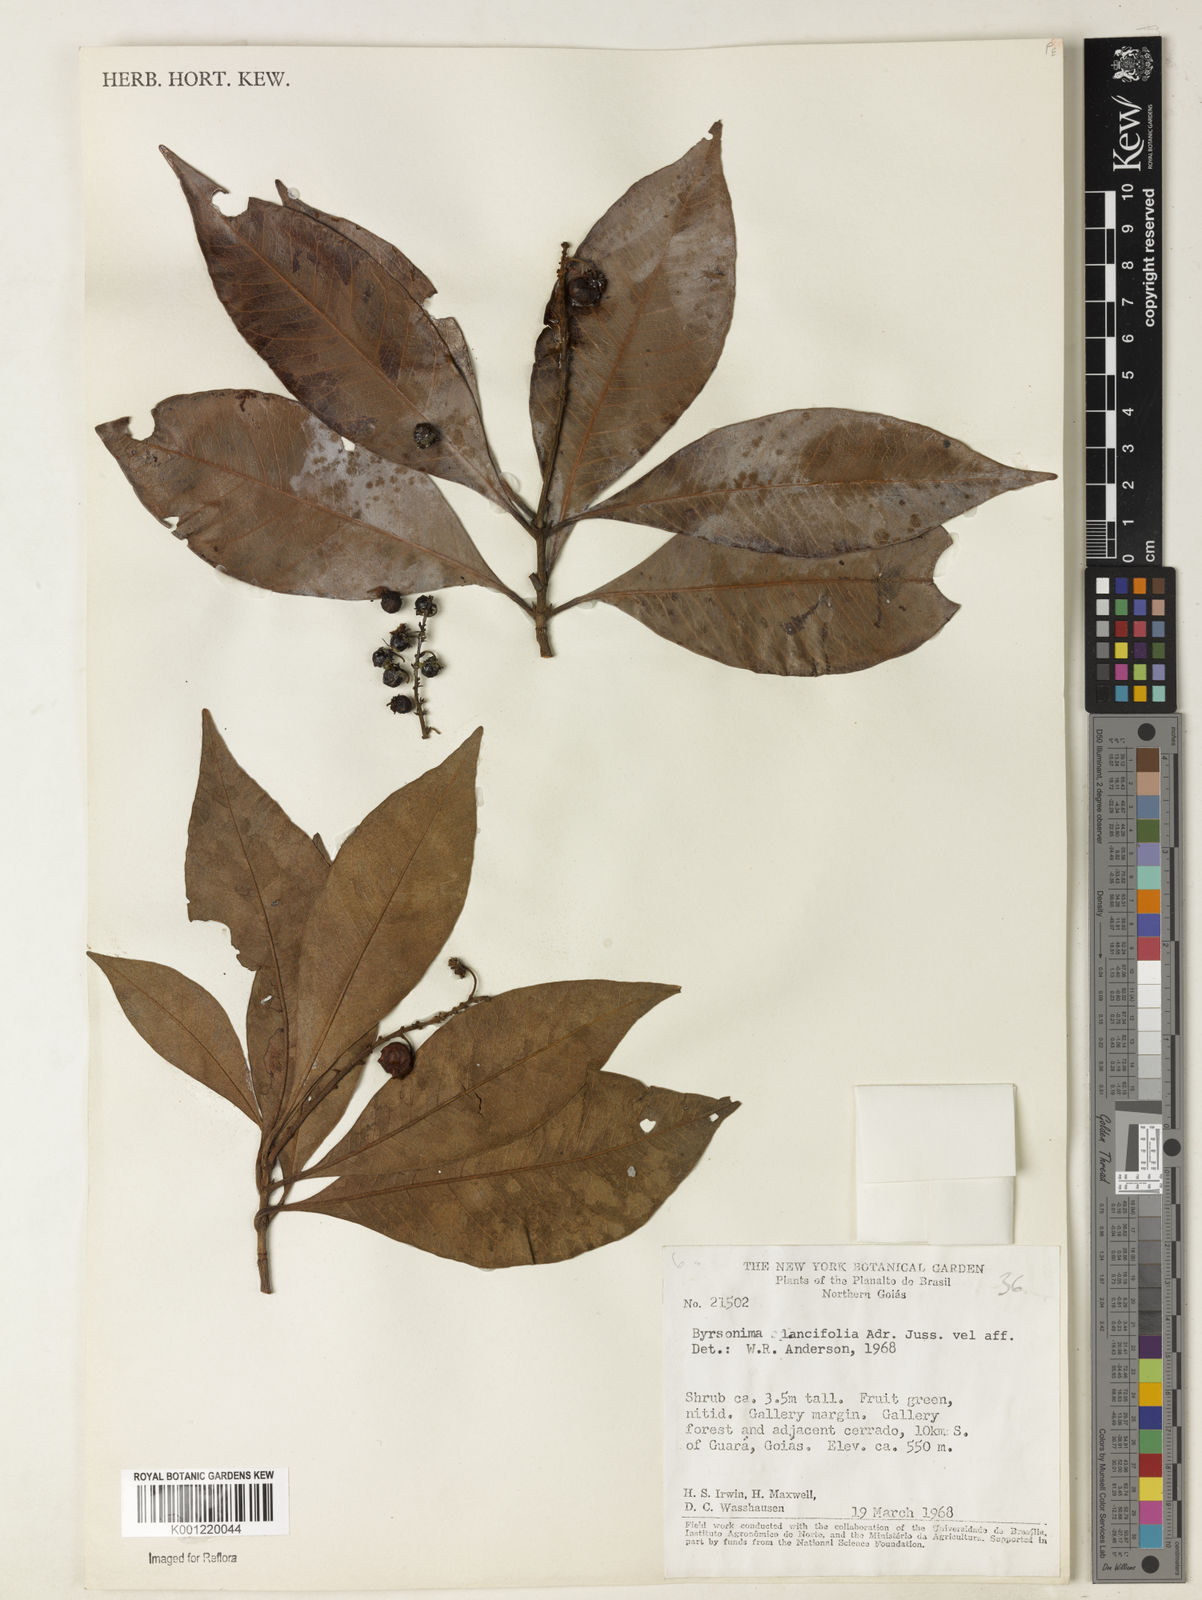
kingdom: Plantae
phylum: Tracheophyta
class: Magnoliopsida
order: Malpighiales
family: Malpighiaceae
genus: Byrsonima
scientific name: Byrsonima lancifolia
